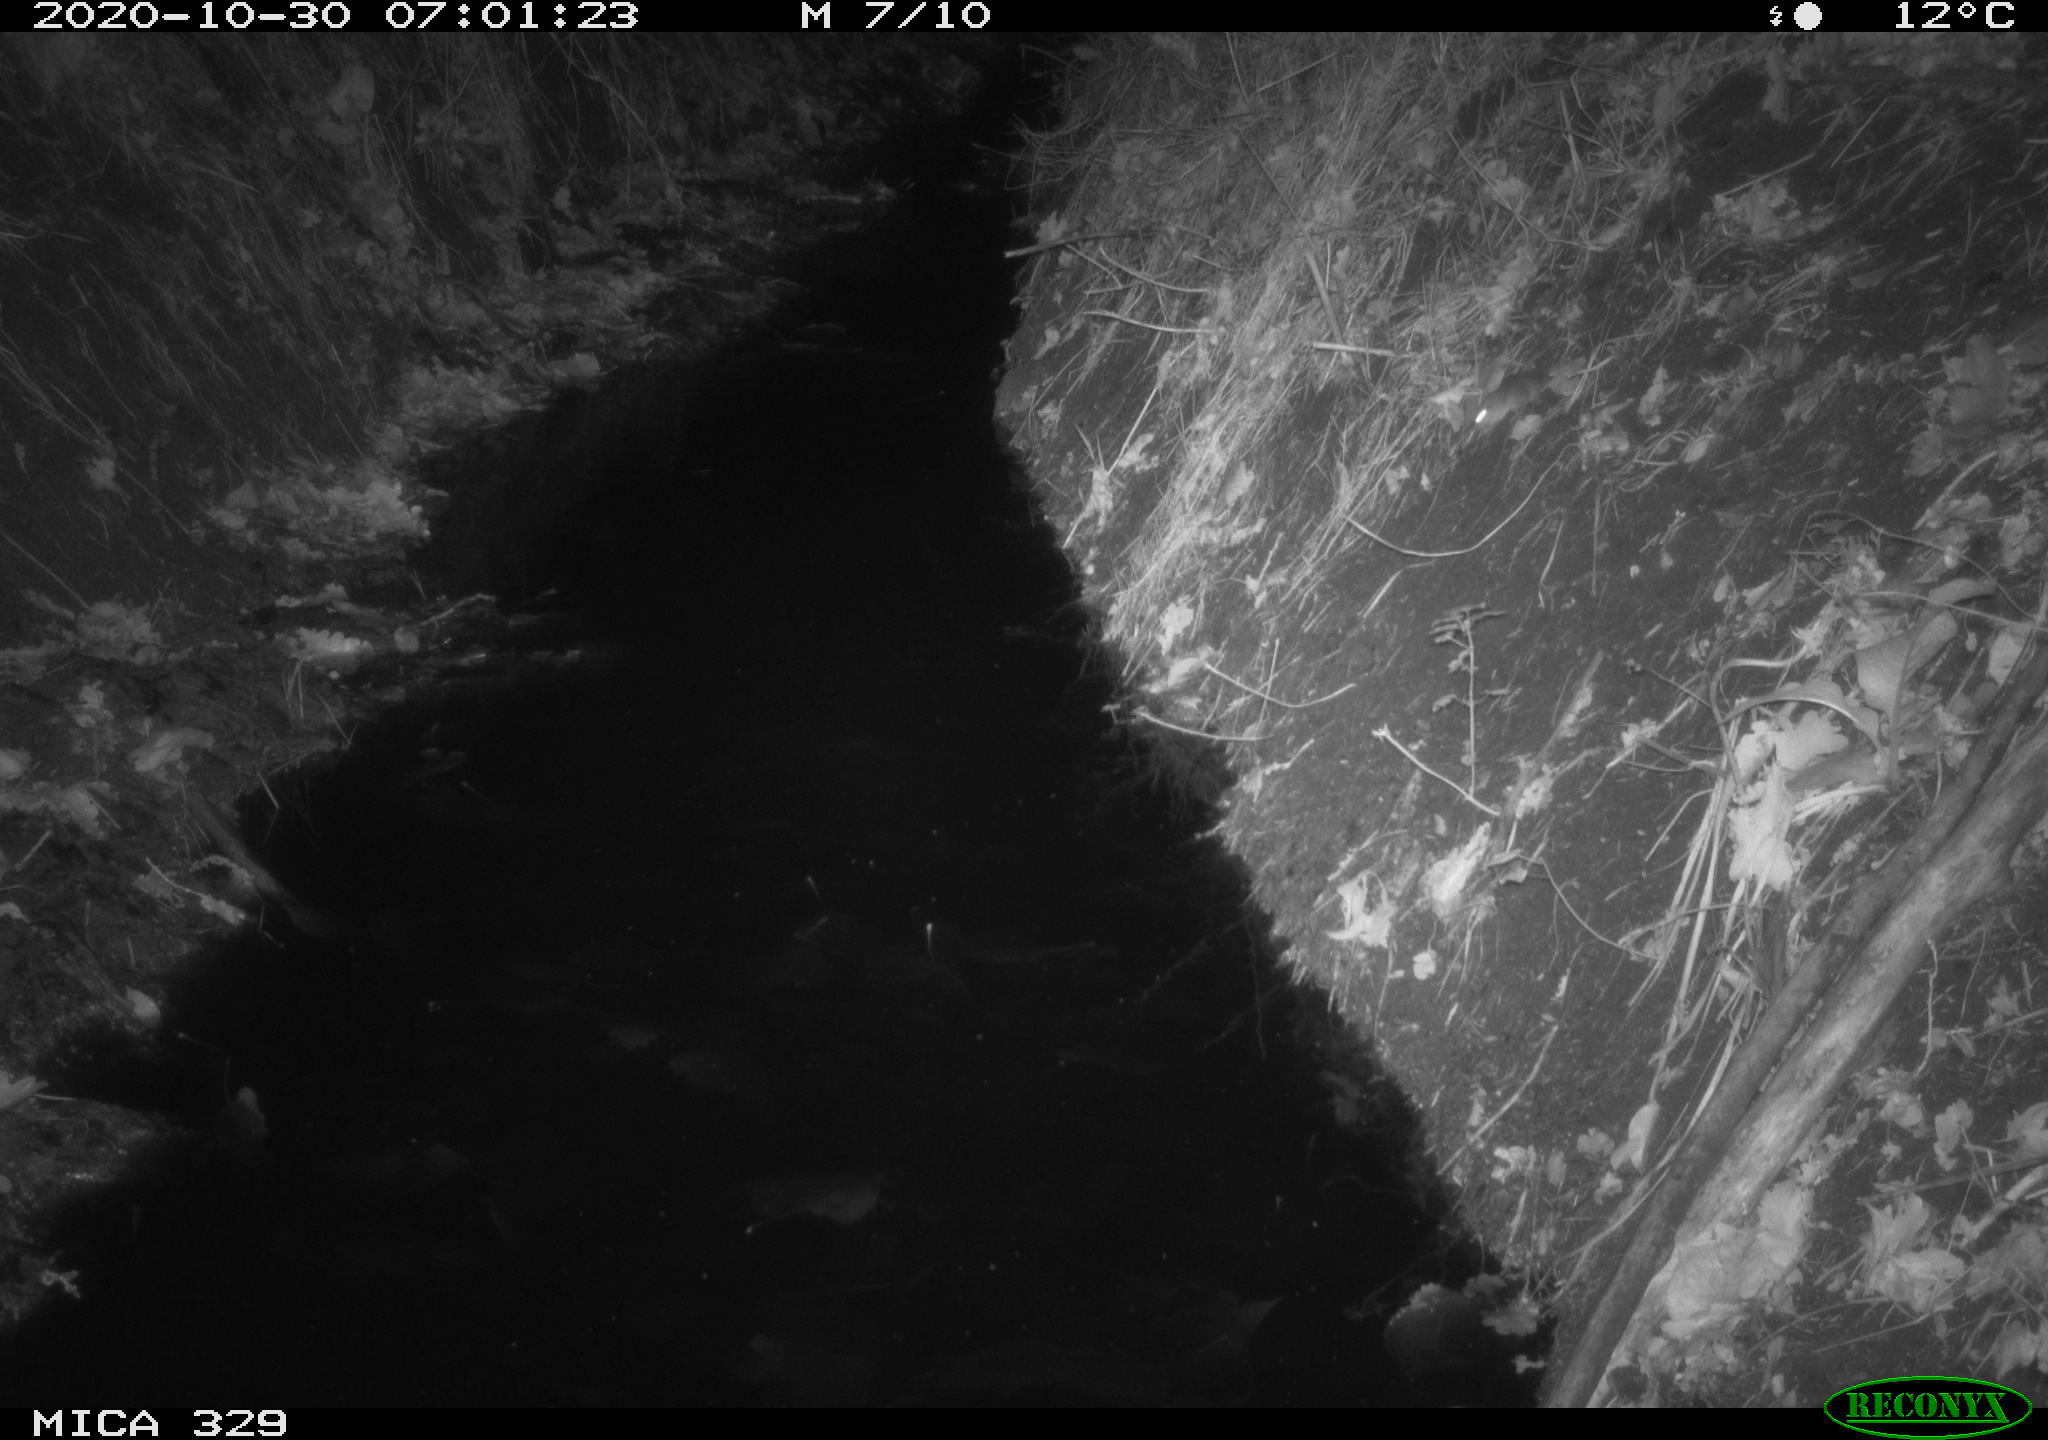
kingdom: Animalia
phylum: Chordata
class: Mammalia
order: Rodentia
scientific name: Rodentia
